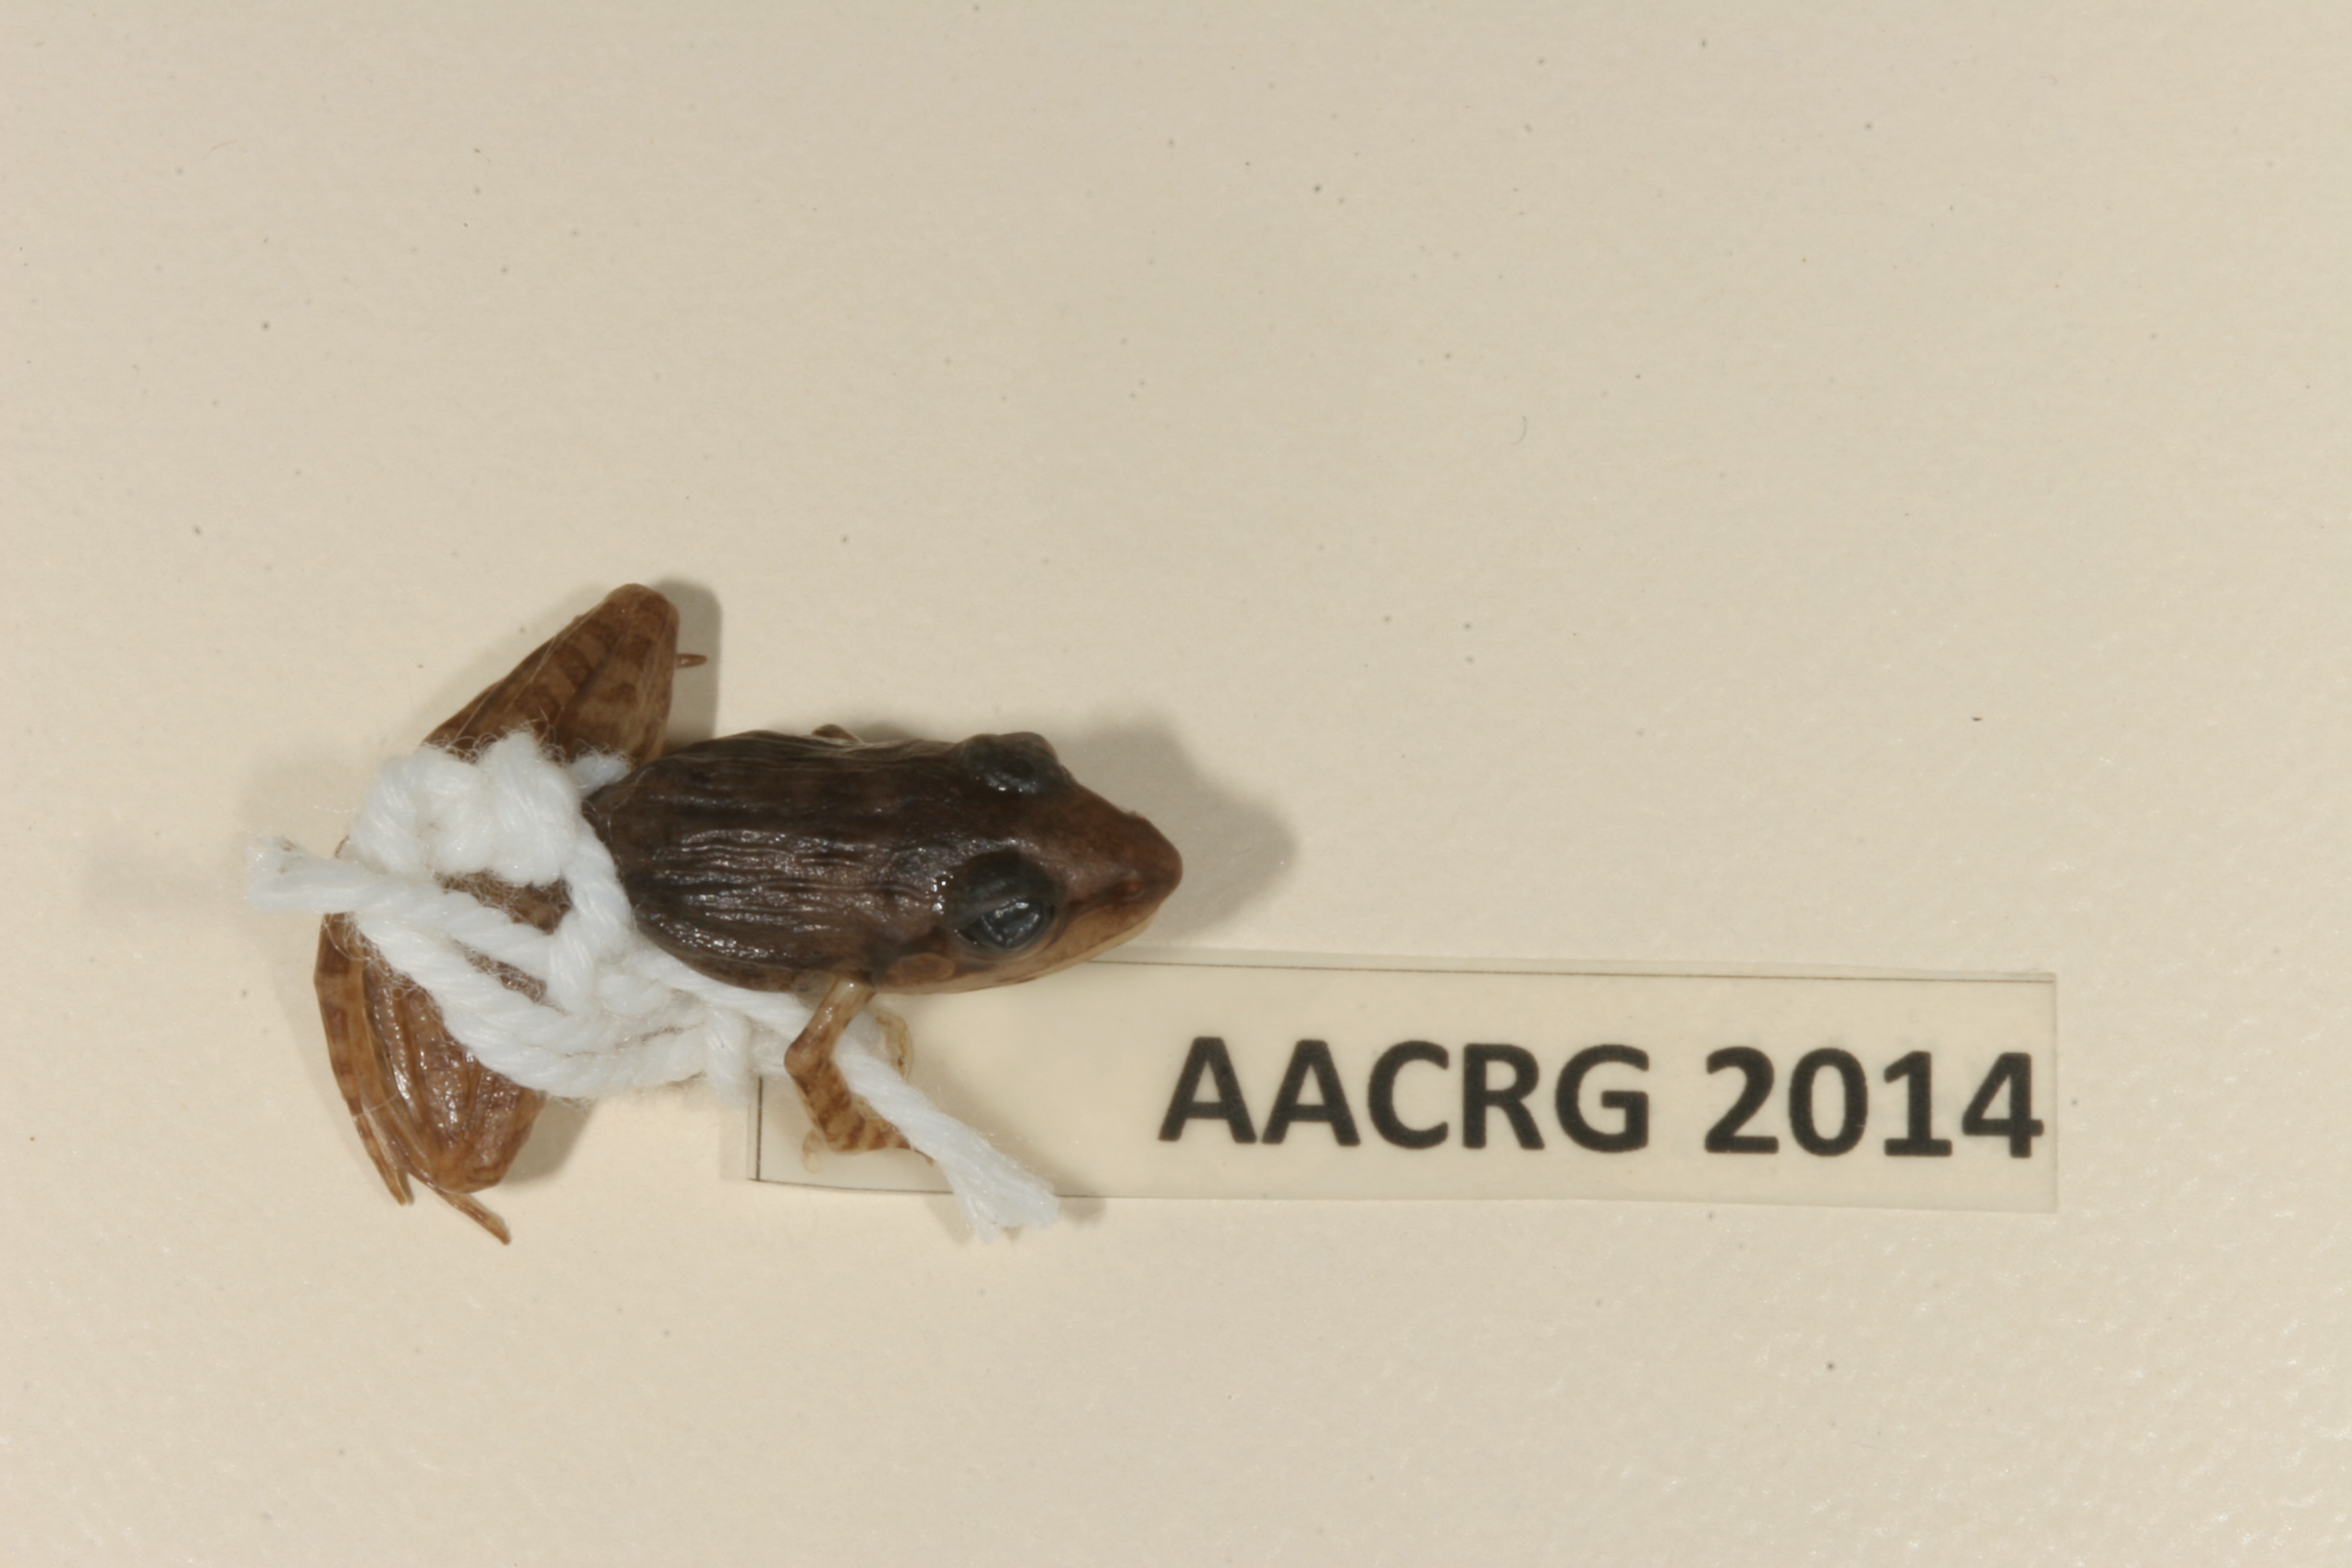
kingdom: Animalia
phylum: Chordata
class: Amphibia
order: Anura
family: Ptychadenidae
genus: Ptychadena
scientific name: Ptychadena anchietae
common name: Anchieta's ridged frog
